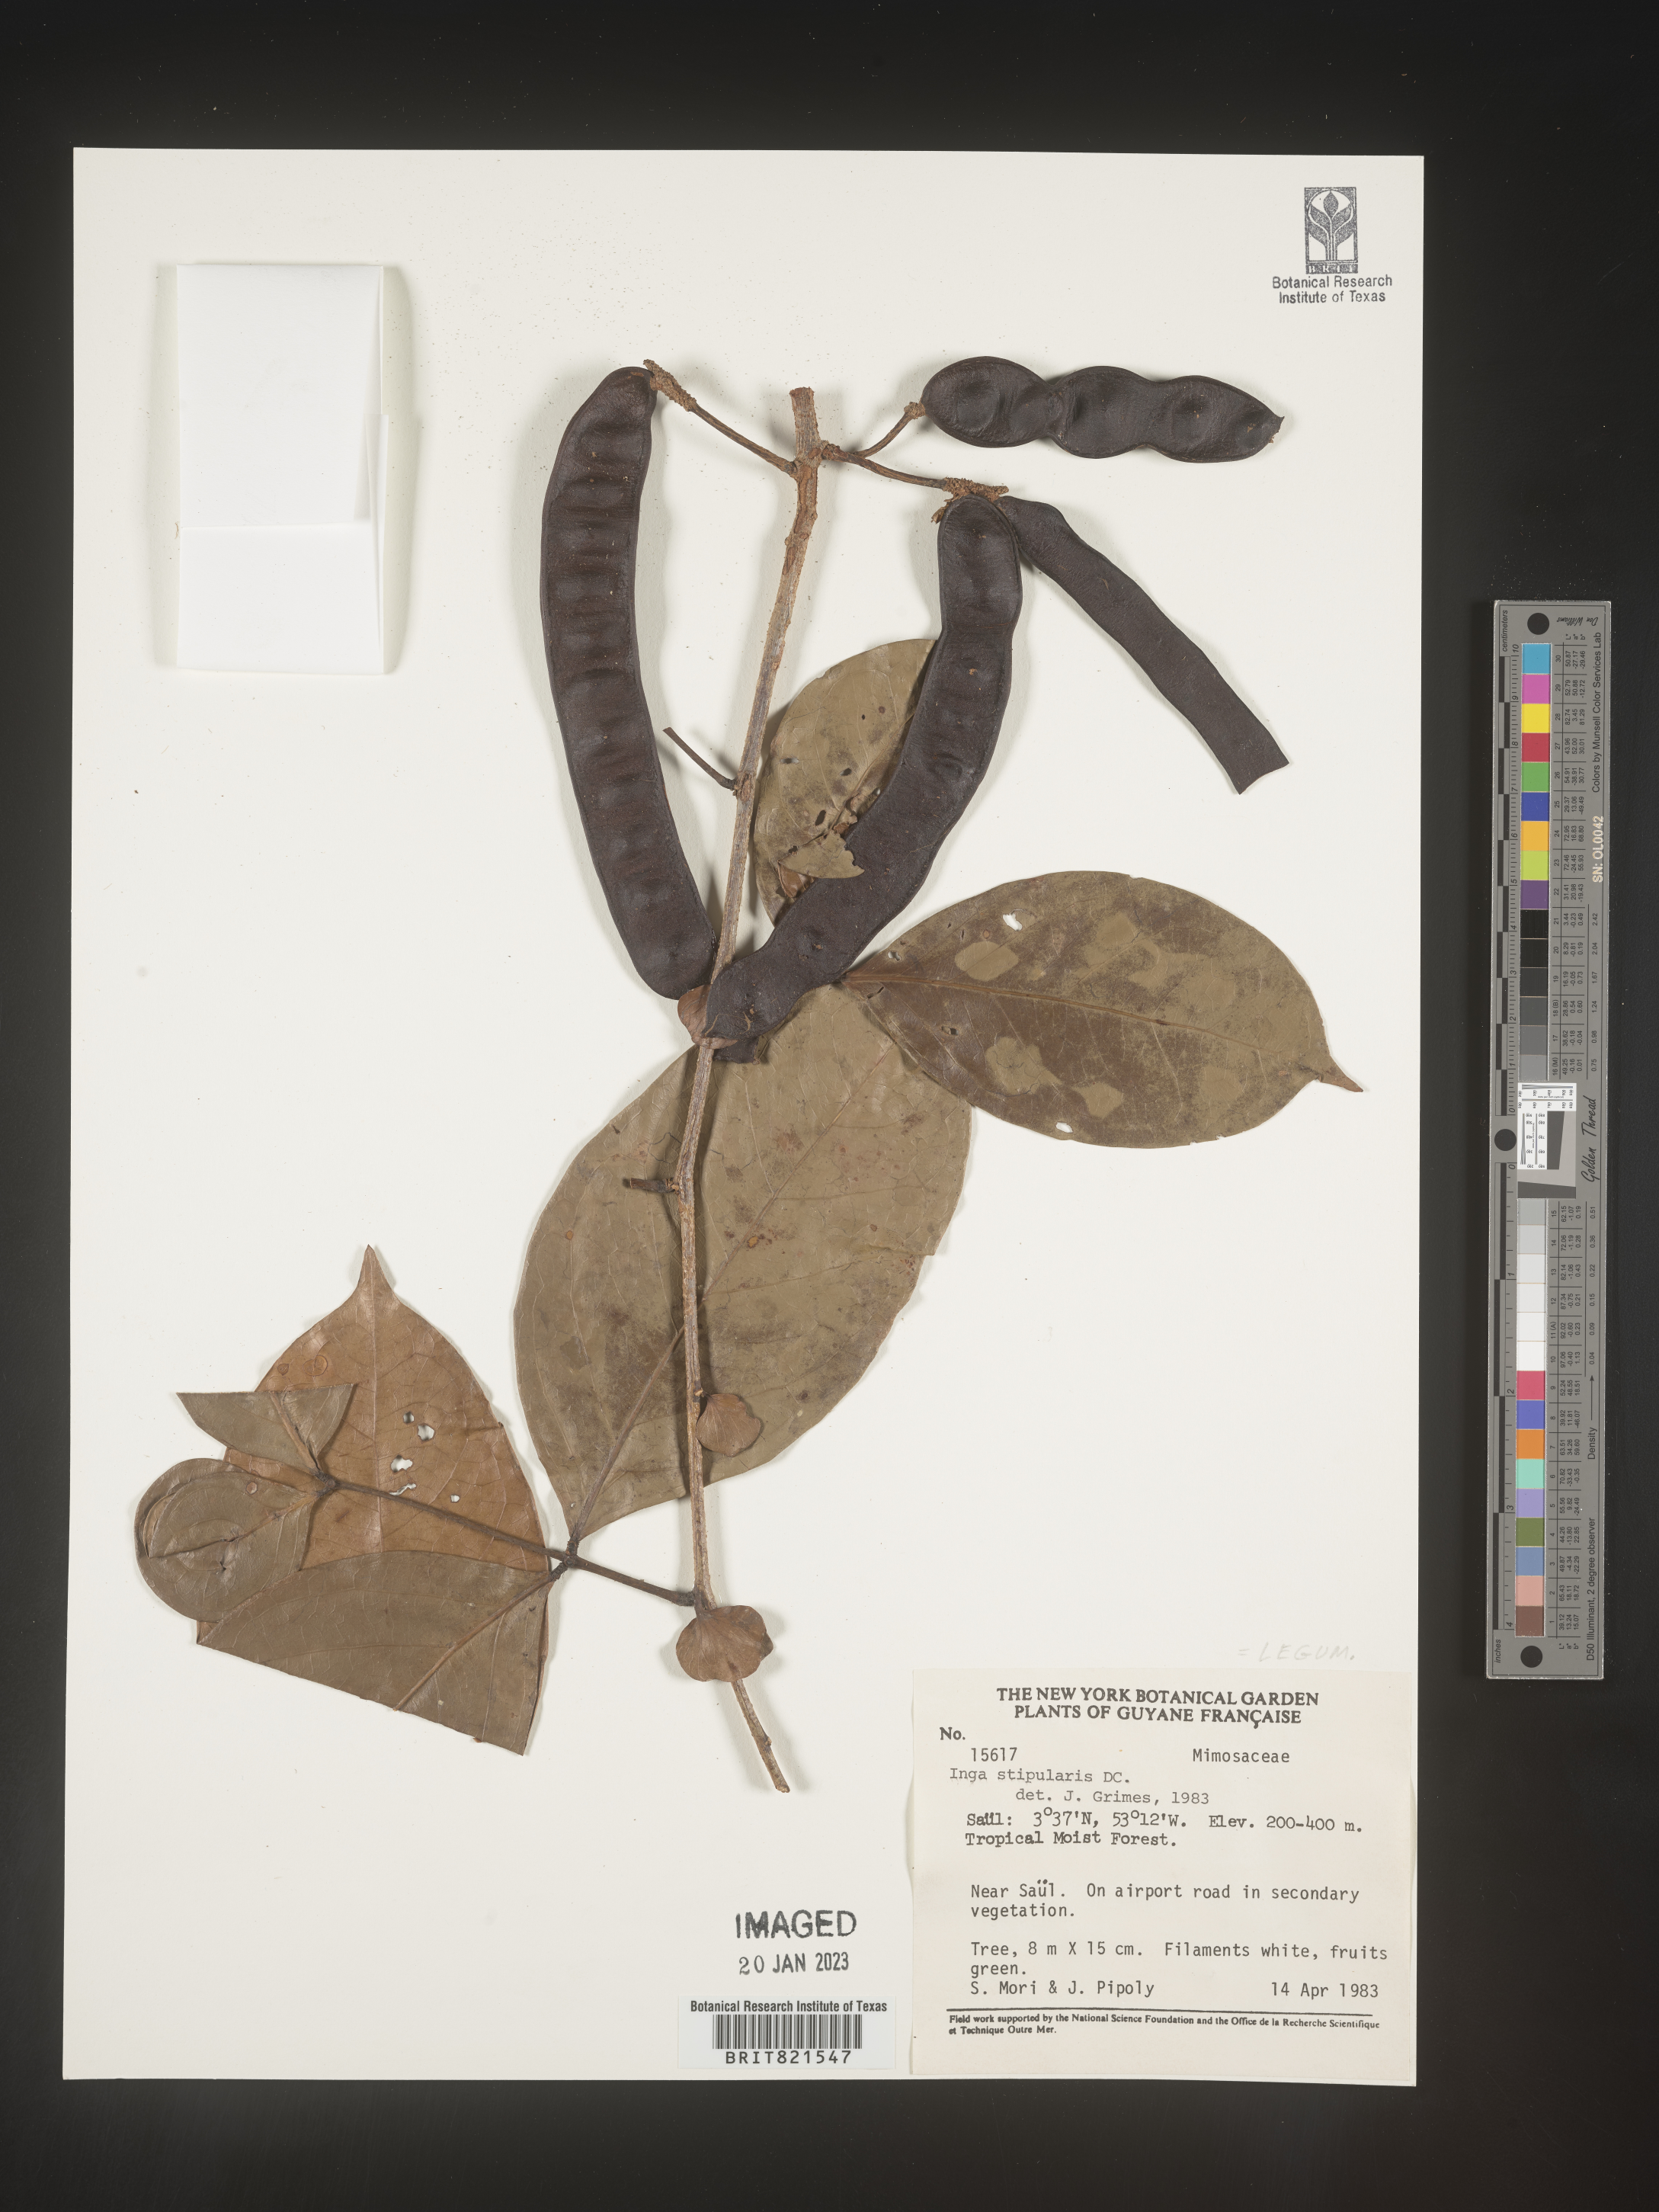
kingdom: Plantae
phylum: Tracheophyta
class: Magnoliopsida
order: Fabales
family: Fabaceae
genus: Inga
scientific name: Inga
